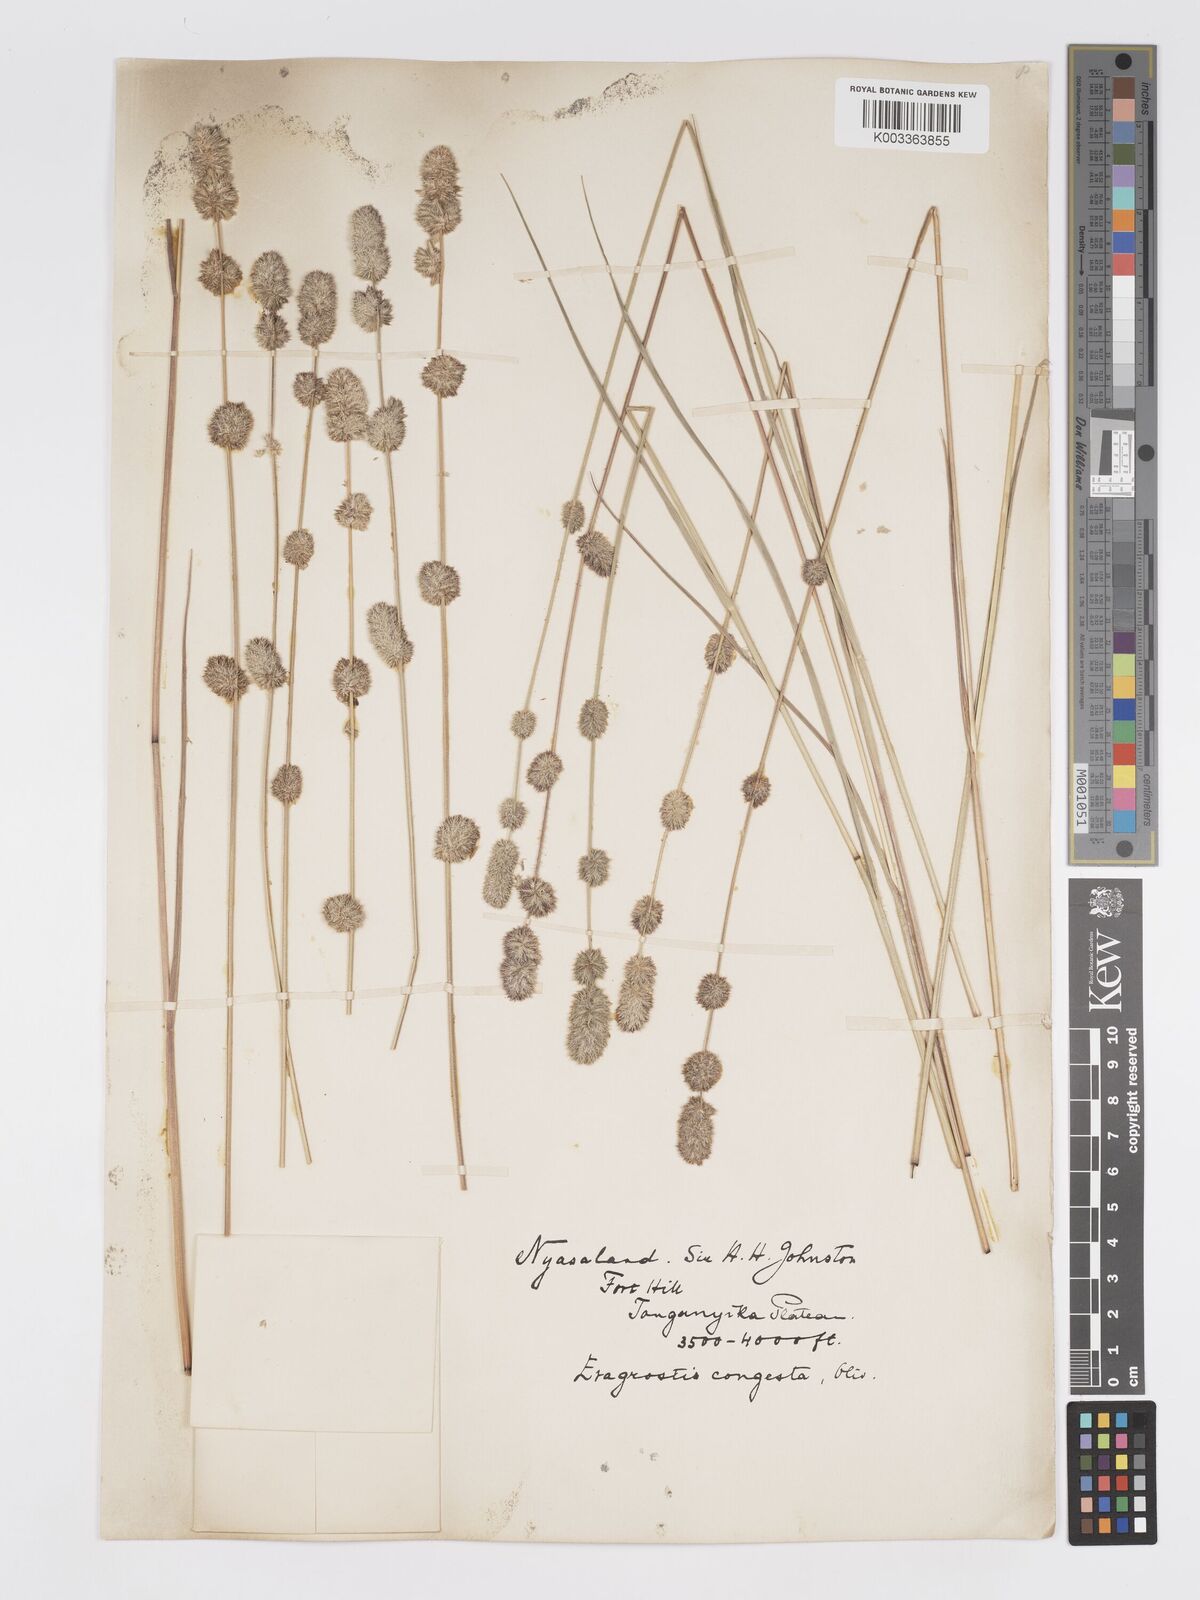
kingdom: Plantae
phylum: Tracheophyta
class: Liliopsida
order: Poales
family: Poaceae
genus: Eragrostis
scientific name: Eragrostis congesta
